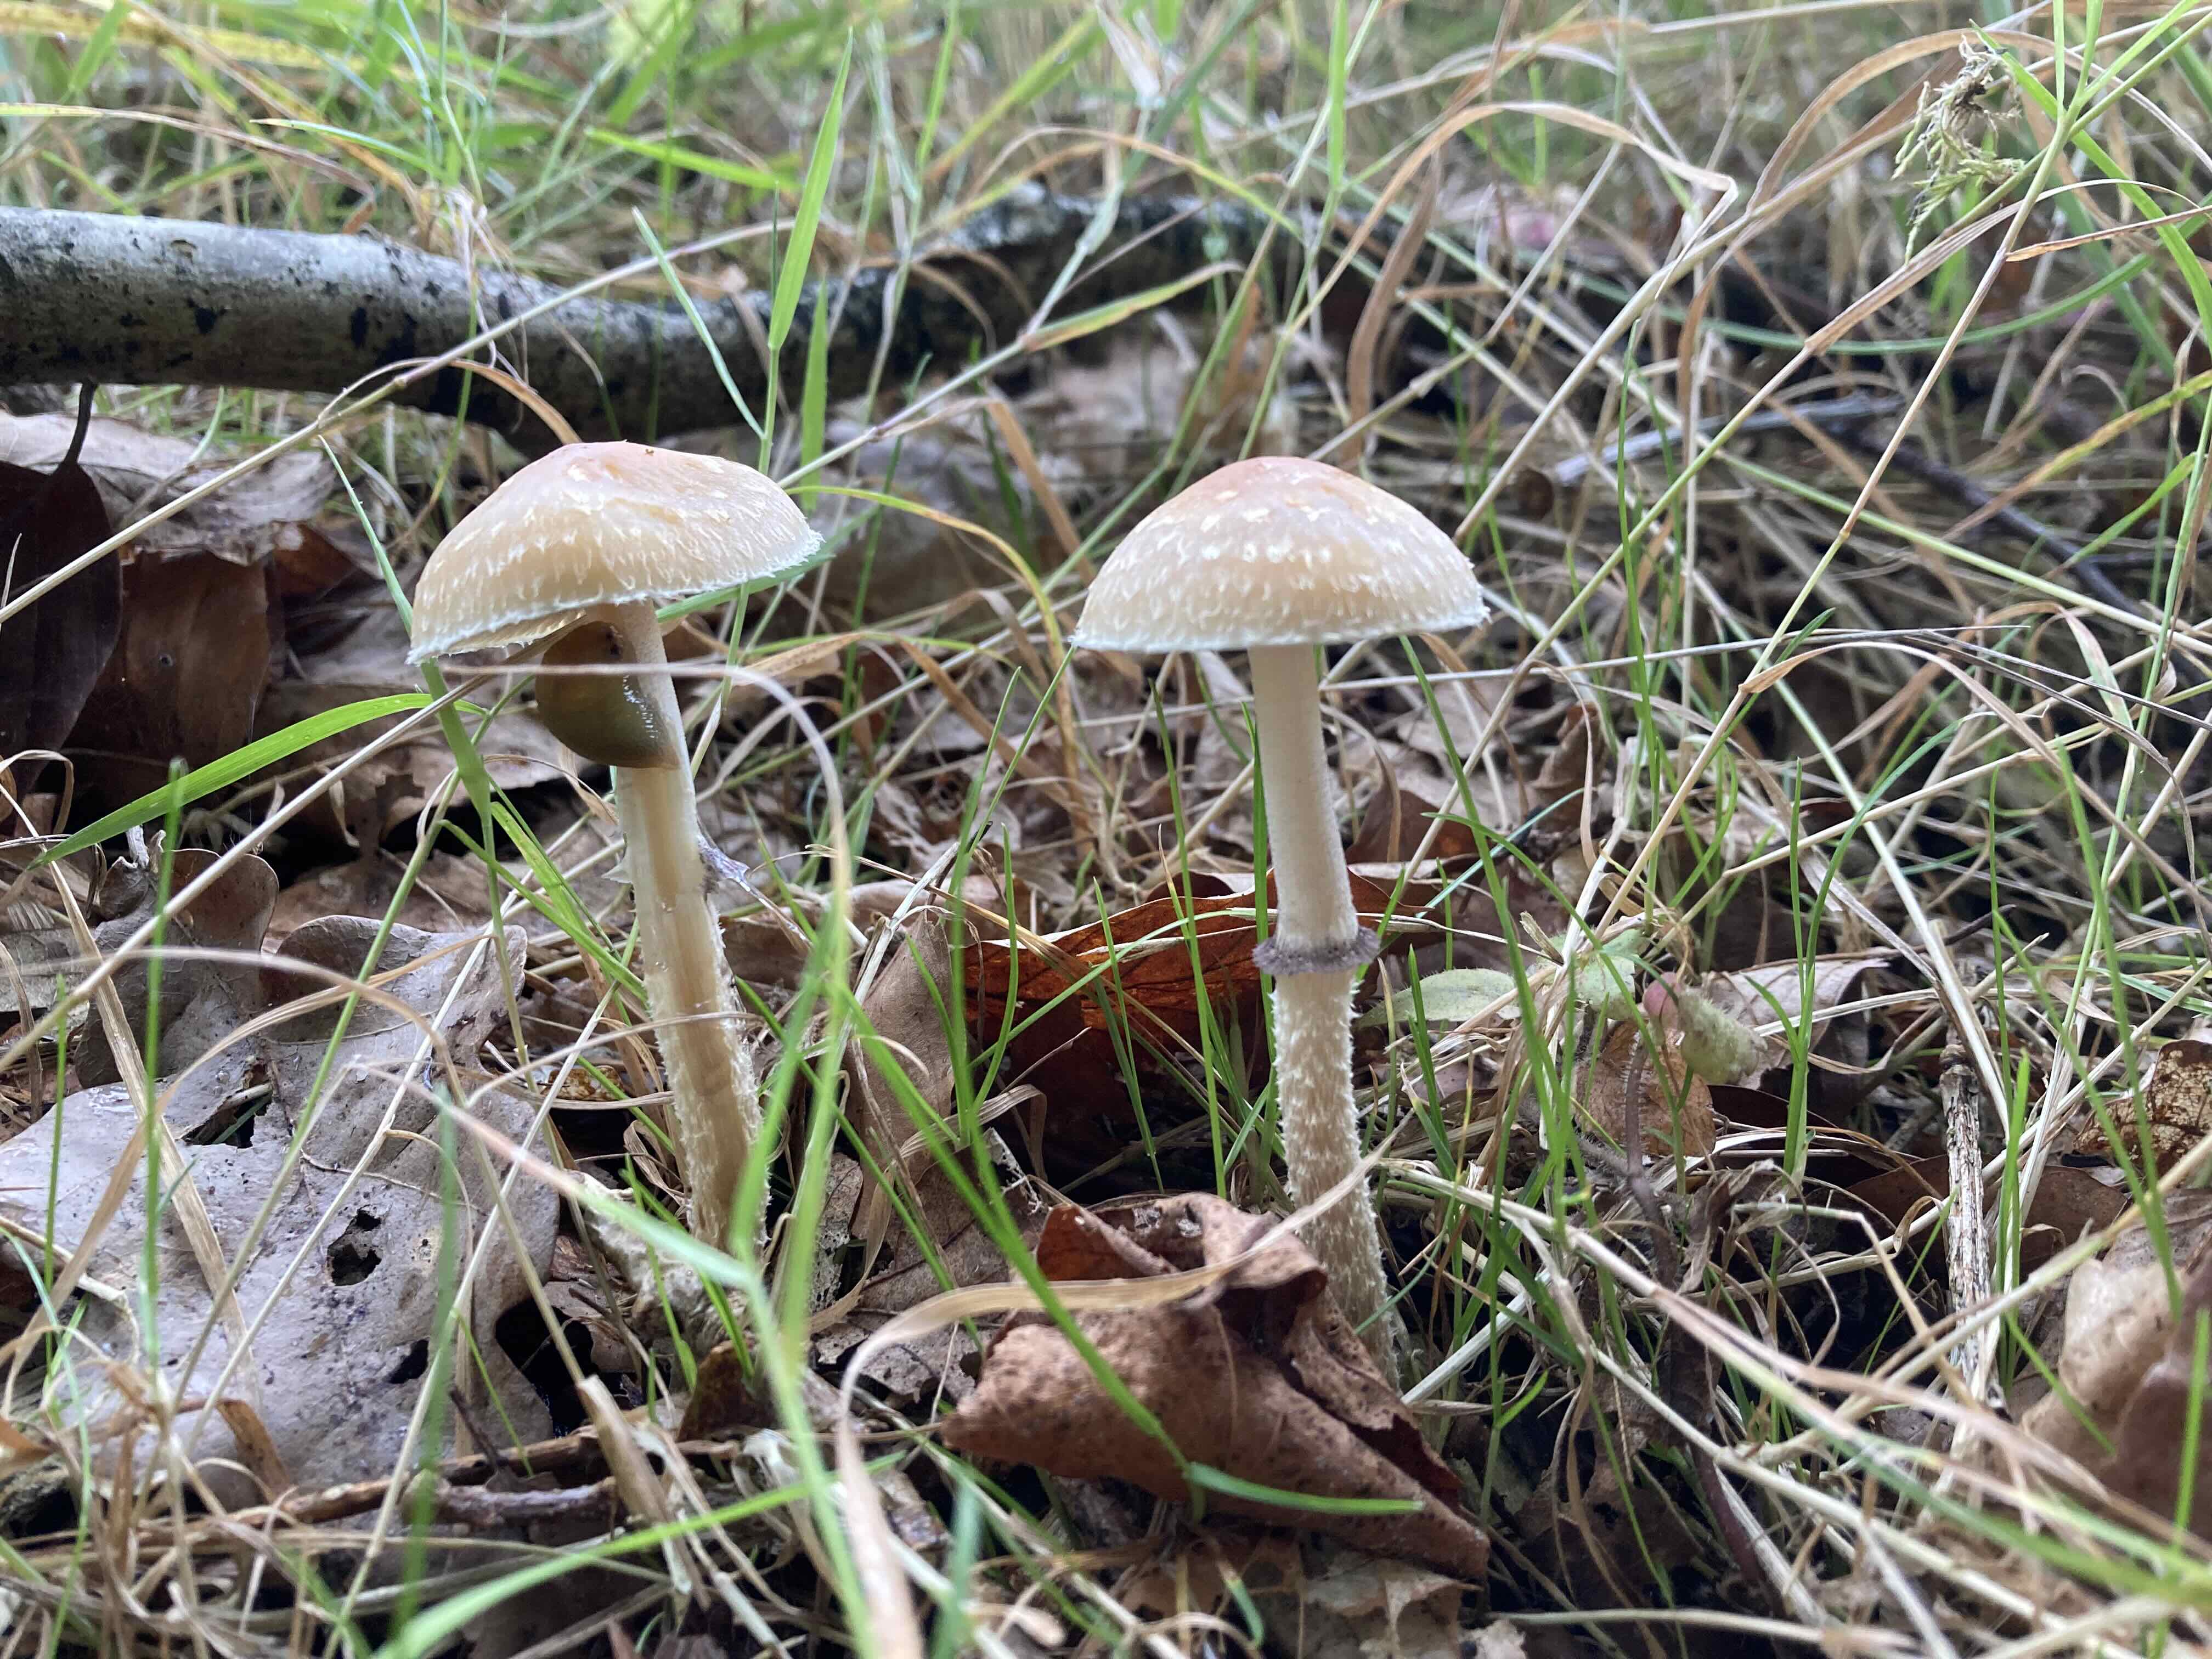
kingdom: Fungi
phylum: Basidiomycota
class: Agaricomycetes
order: Agaricales
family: Strophariaceae
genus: Leratiomyces
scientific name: Leratiomyces squamosus
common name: skællet bredblad
